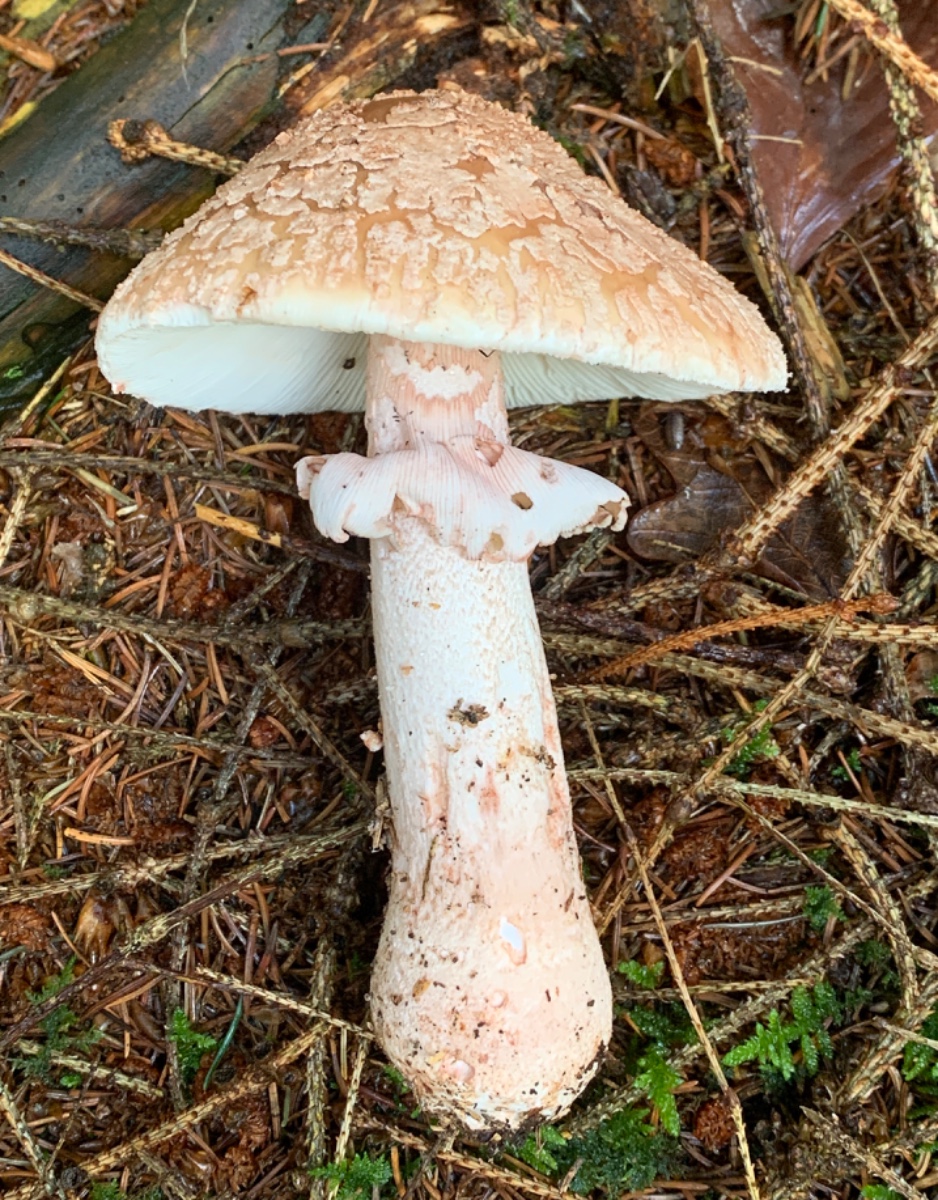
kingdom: Fungi
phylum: Basidiomycota
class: Agaricomycetes
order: Agaricales
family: Amanitaceae
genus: Amanita
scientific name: Amanita rubescens
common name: rødmende fluesvamp
